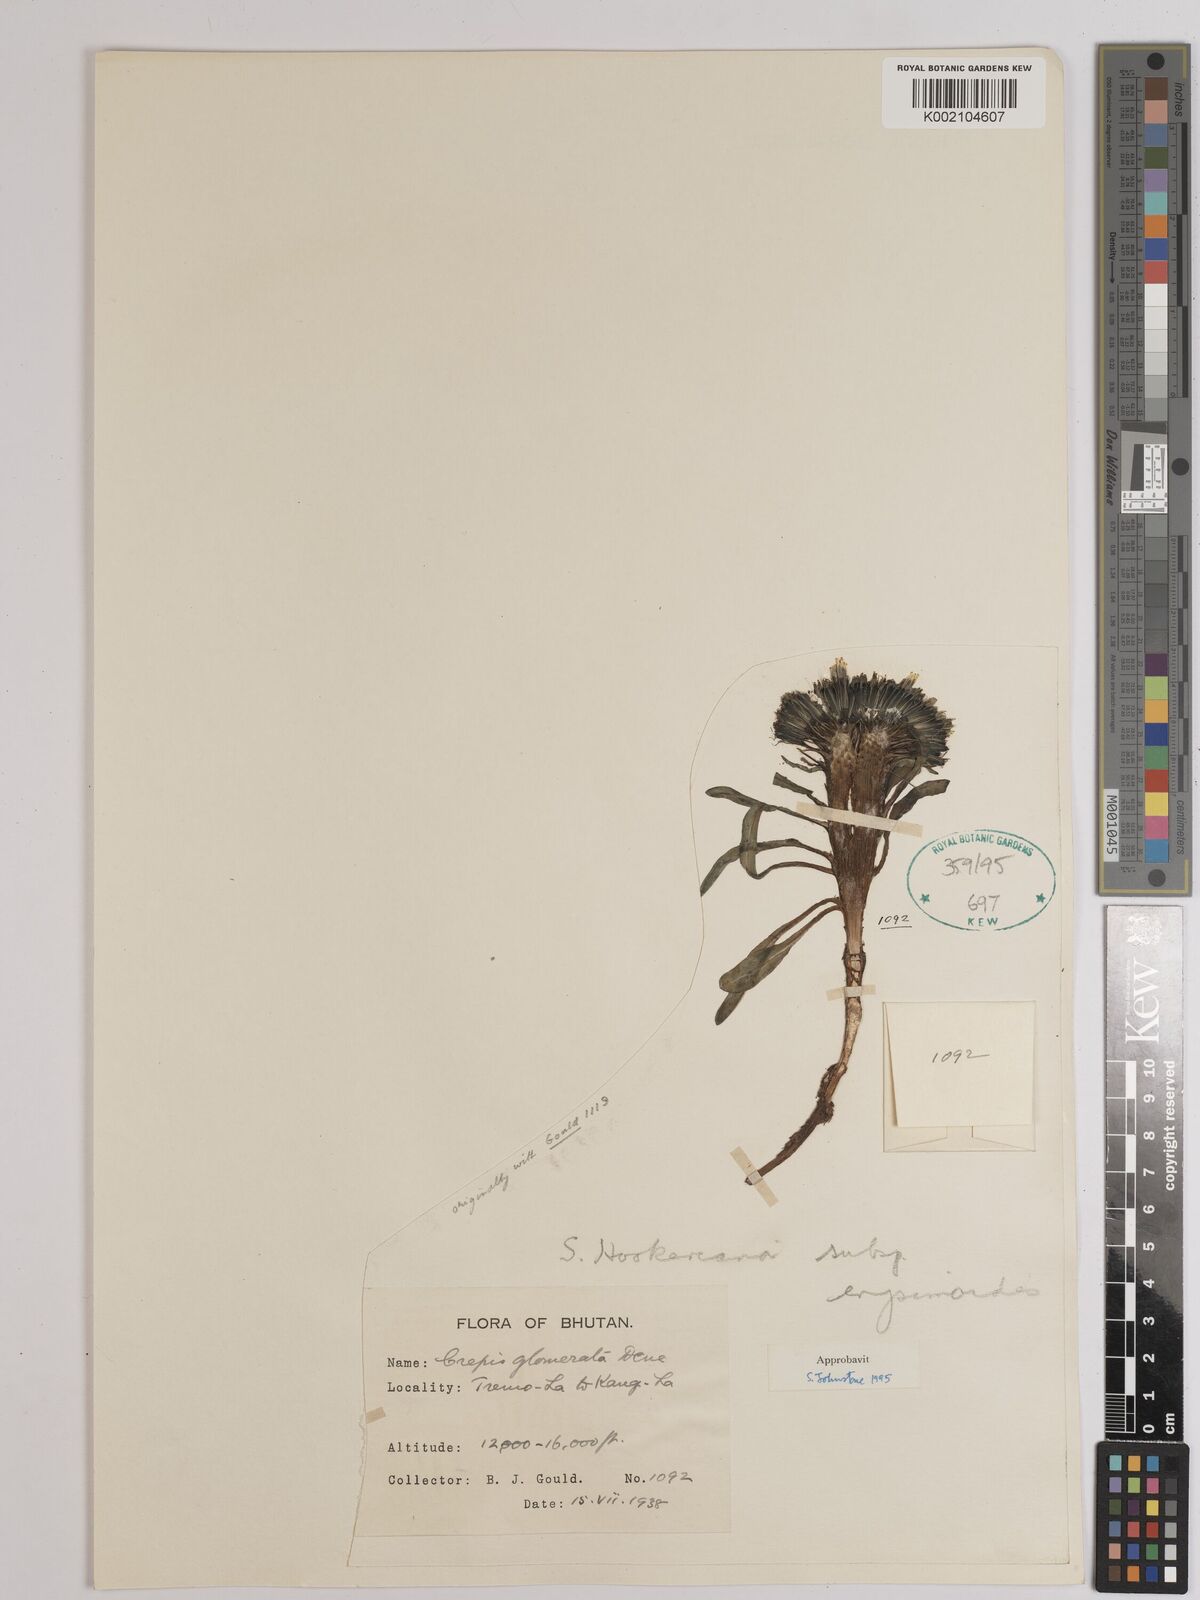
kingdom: Plantae
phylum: Tracheophyta
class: Magnoliopsida
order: Asterales
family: Asteraceae
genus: Soroseris
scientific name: Soroseris hookeriana
